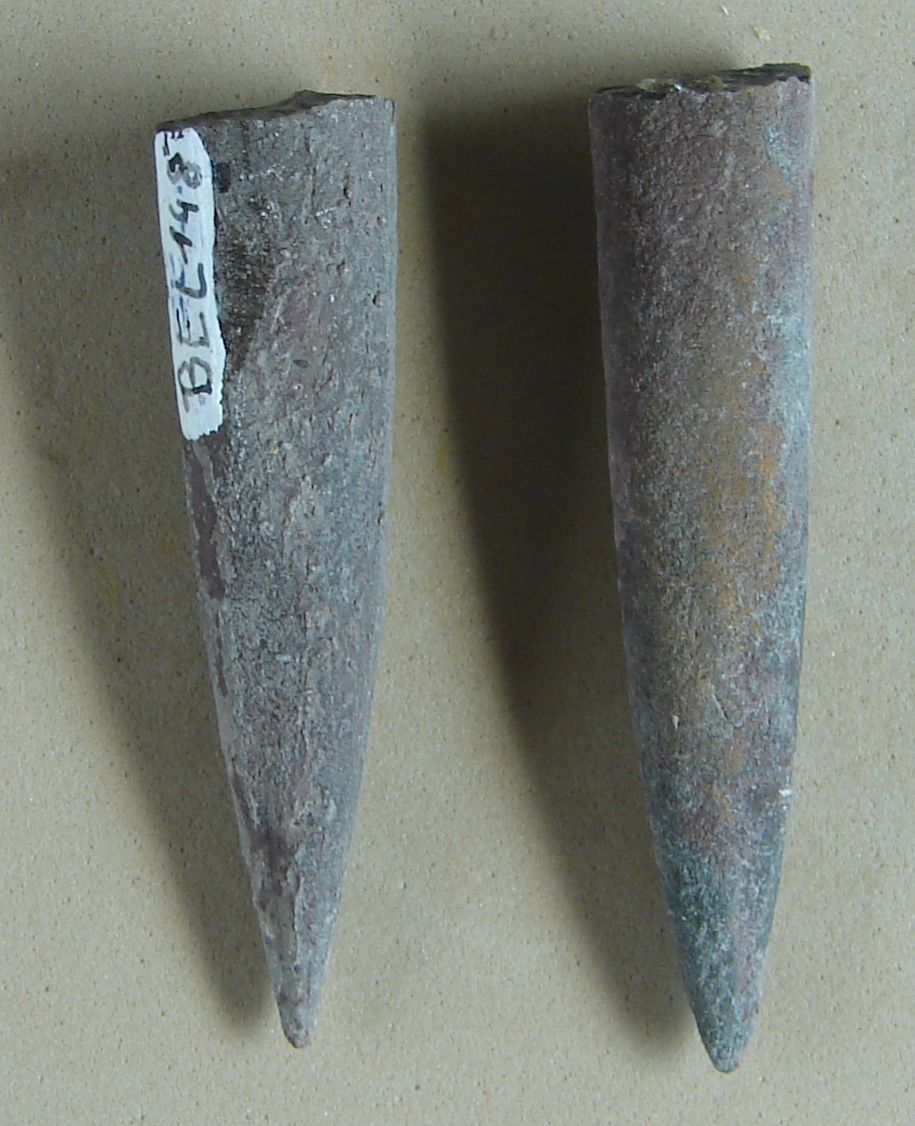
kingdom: Animalia
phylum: Mollusca
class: Cephalopoda
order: Belemnitida
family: Megateuthididae
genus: Acrocoelites
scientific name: Acrocoelites ilminstrensis
